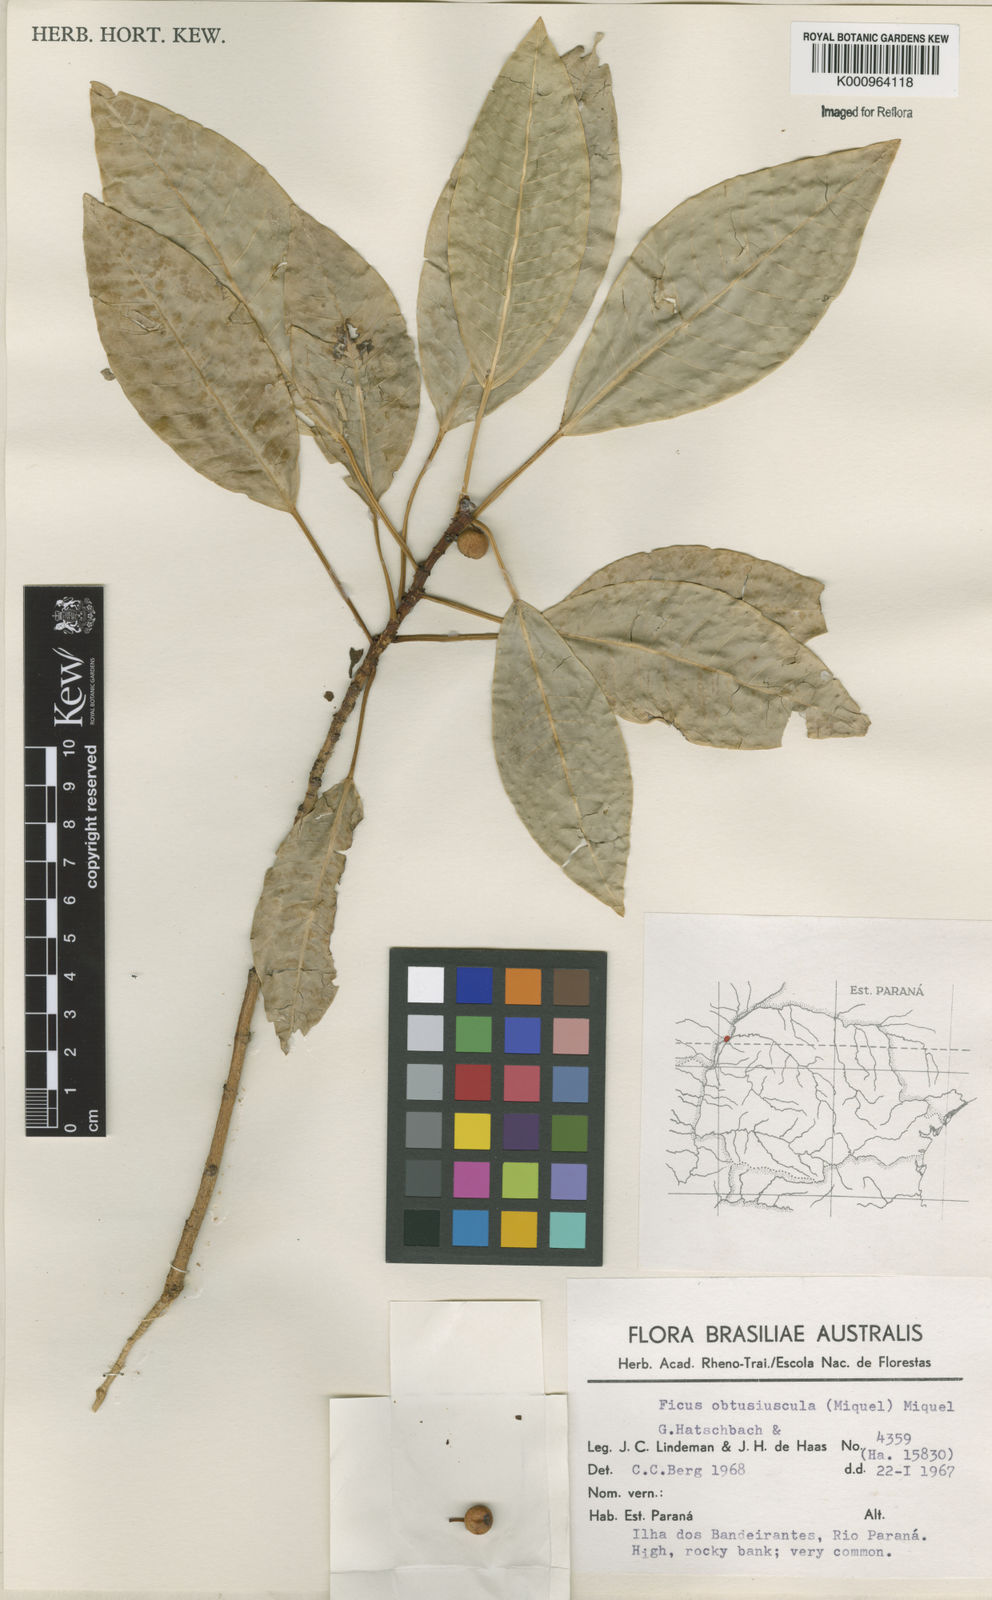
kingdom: Plantae
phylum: Tracheophyta
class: Magnoliopsida
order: Rosales
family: Moraceae
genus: Ficus
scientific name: Ficus obtusiuscula
